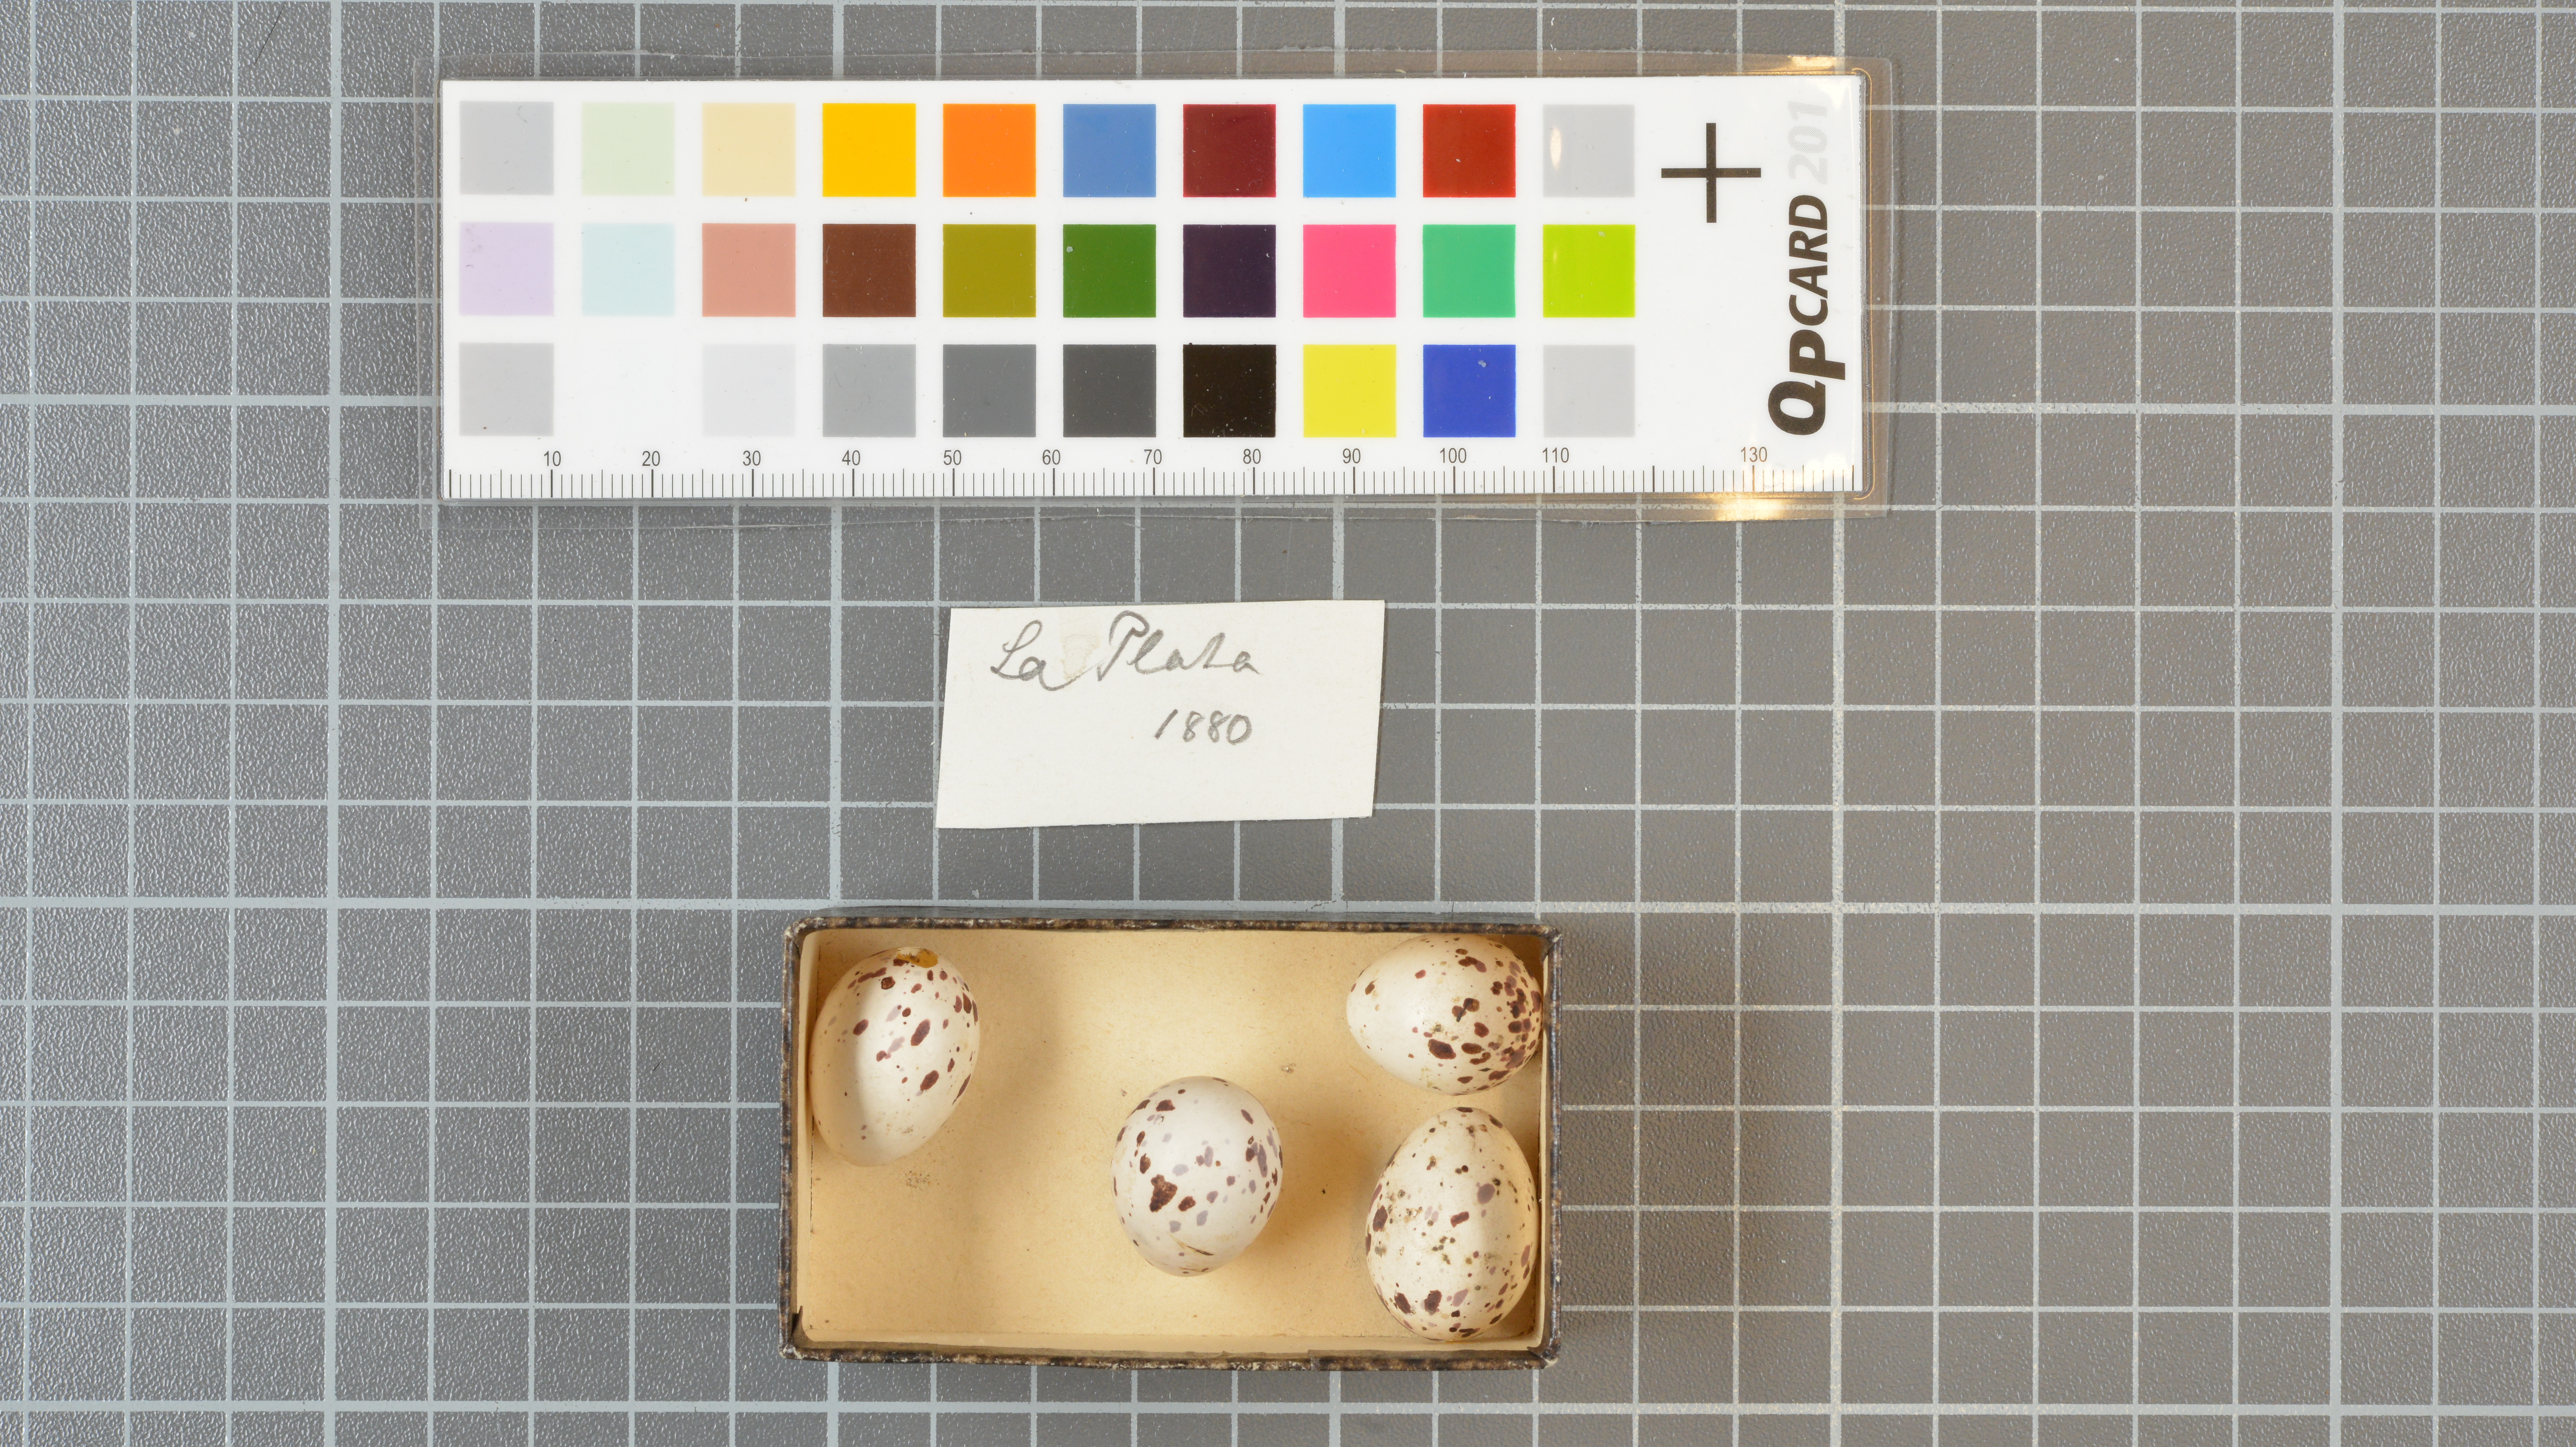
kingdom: Animalia
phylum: Chordata
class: Aves
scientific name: Aves
